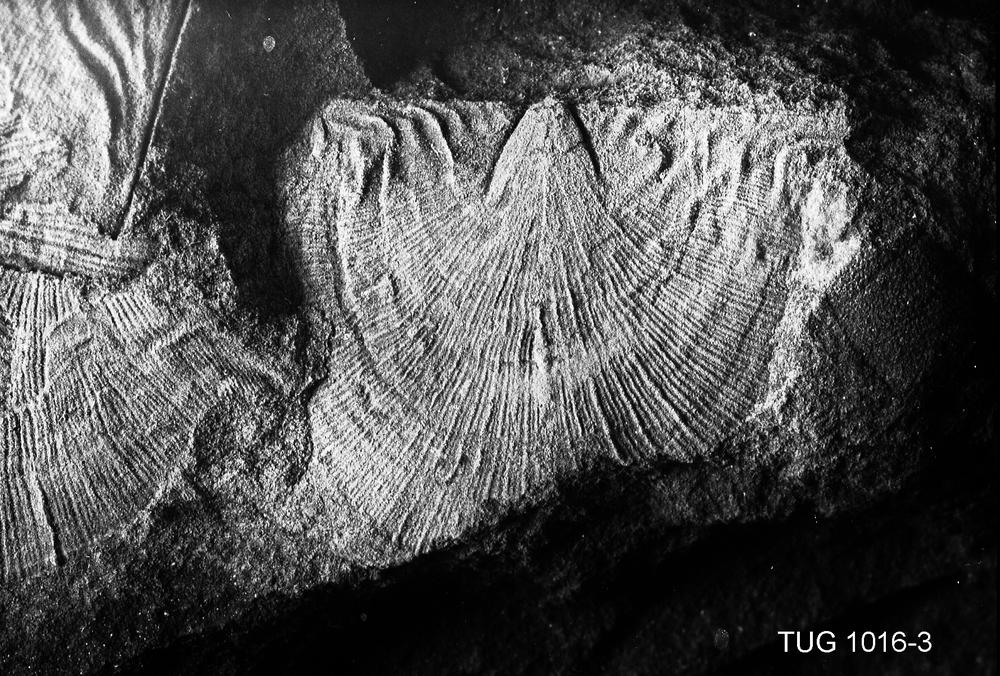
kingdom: Animalia
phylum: Brachiopoda
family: Rafinesquinidae
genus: Kjaerina
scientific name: Kjaerina typa
